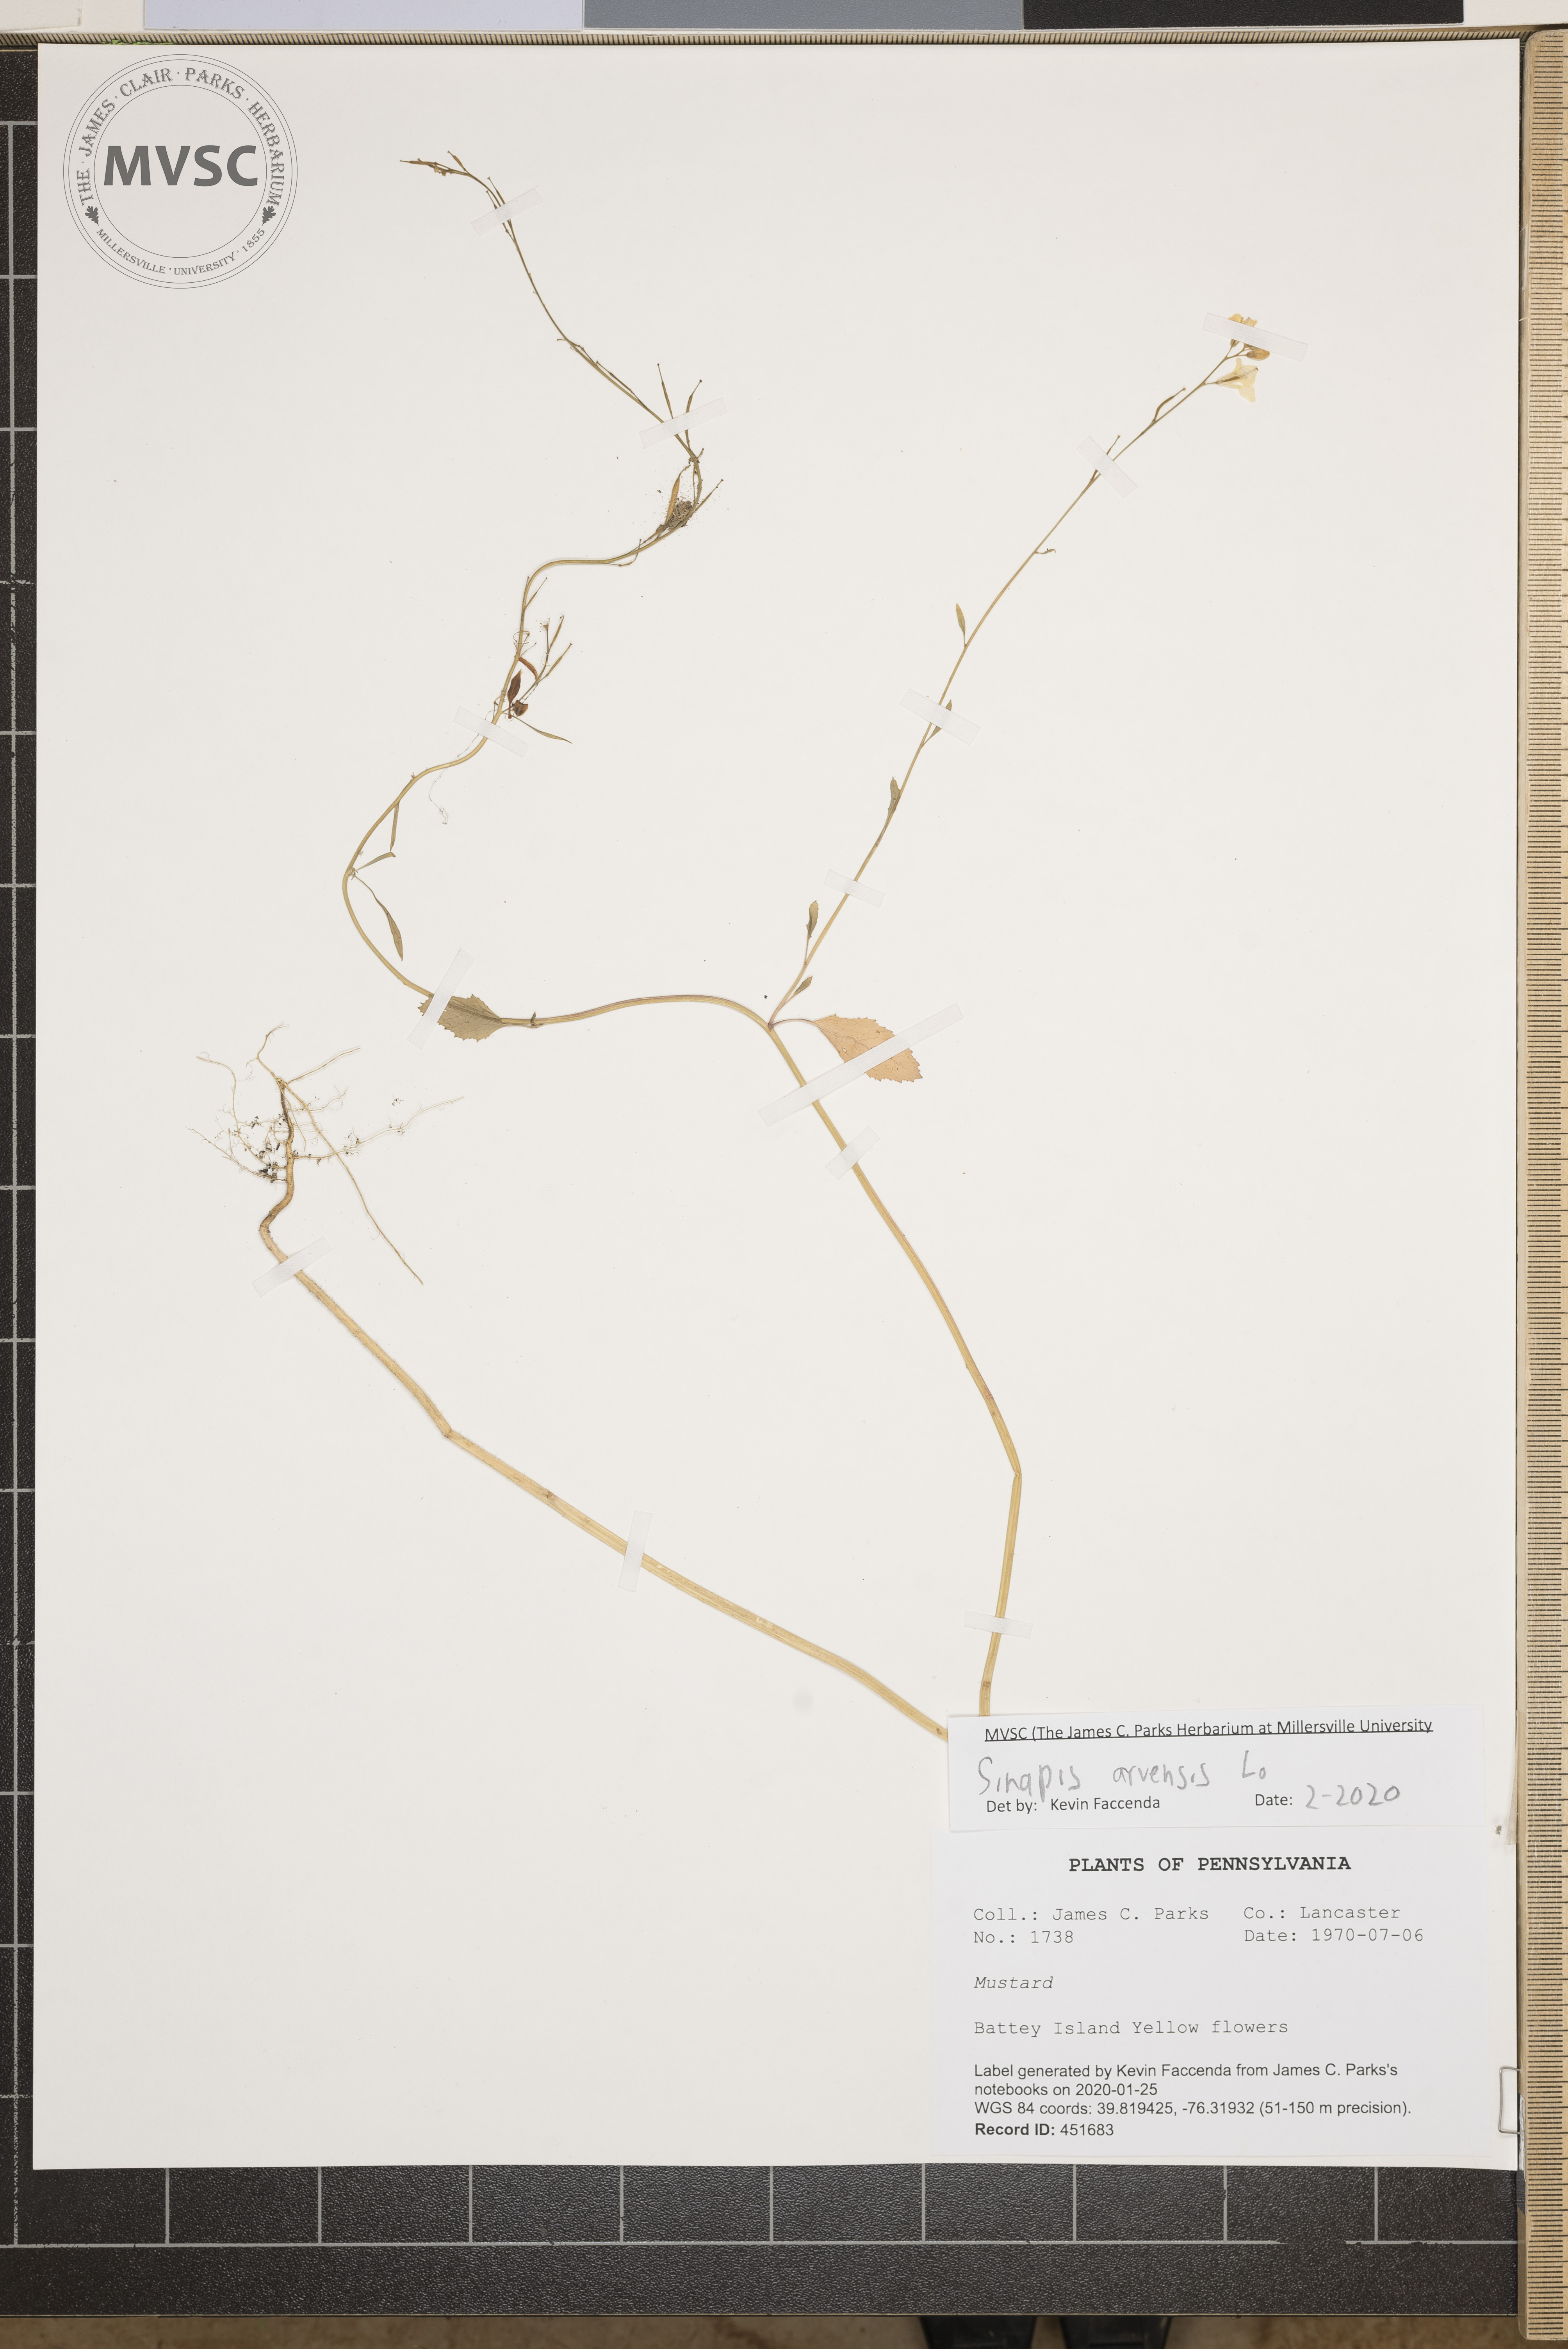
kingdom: Plantae
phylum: Tracheophyta
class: Magnoliopsida
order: Brassicales
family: Brassicaceae
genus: Sinapis
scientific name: Sinapis arvensis
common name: Charlock
